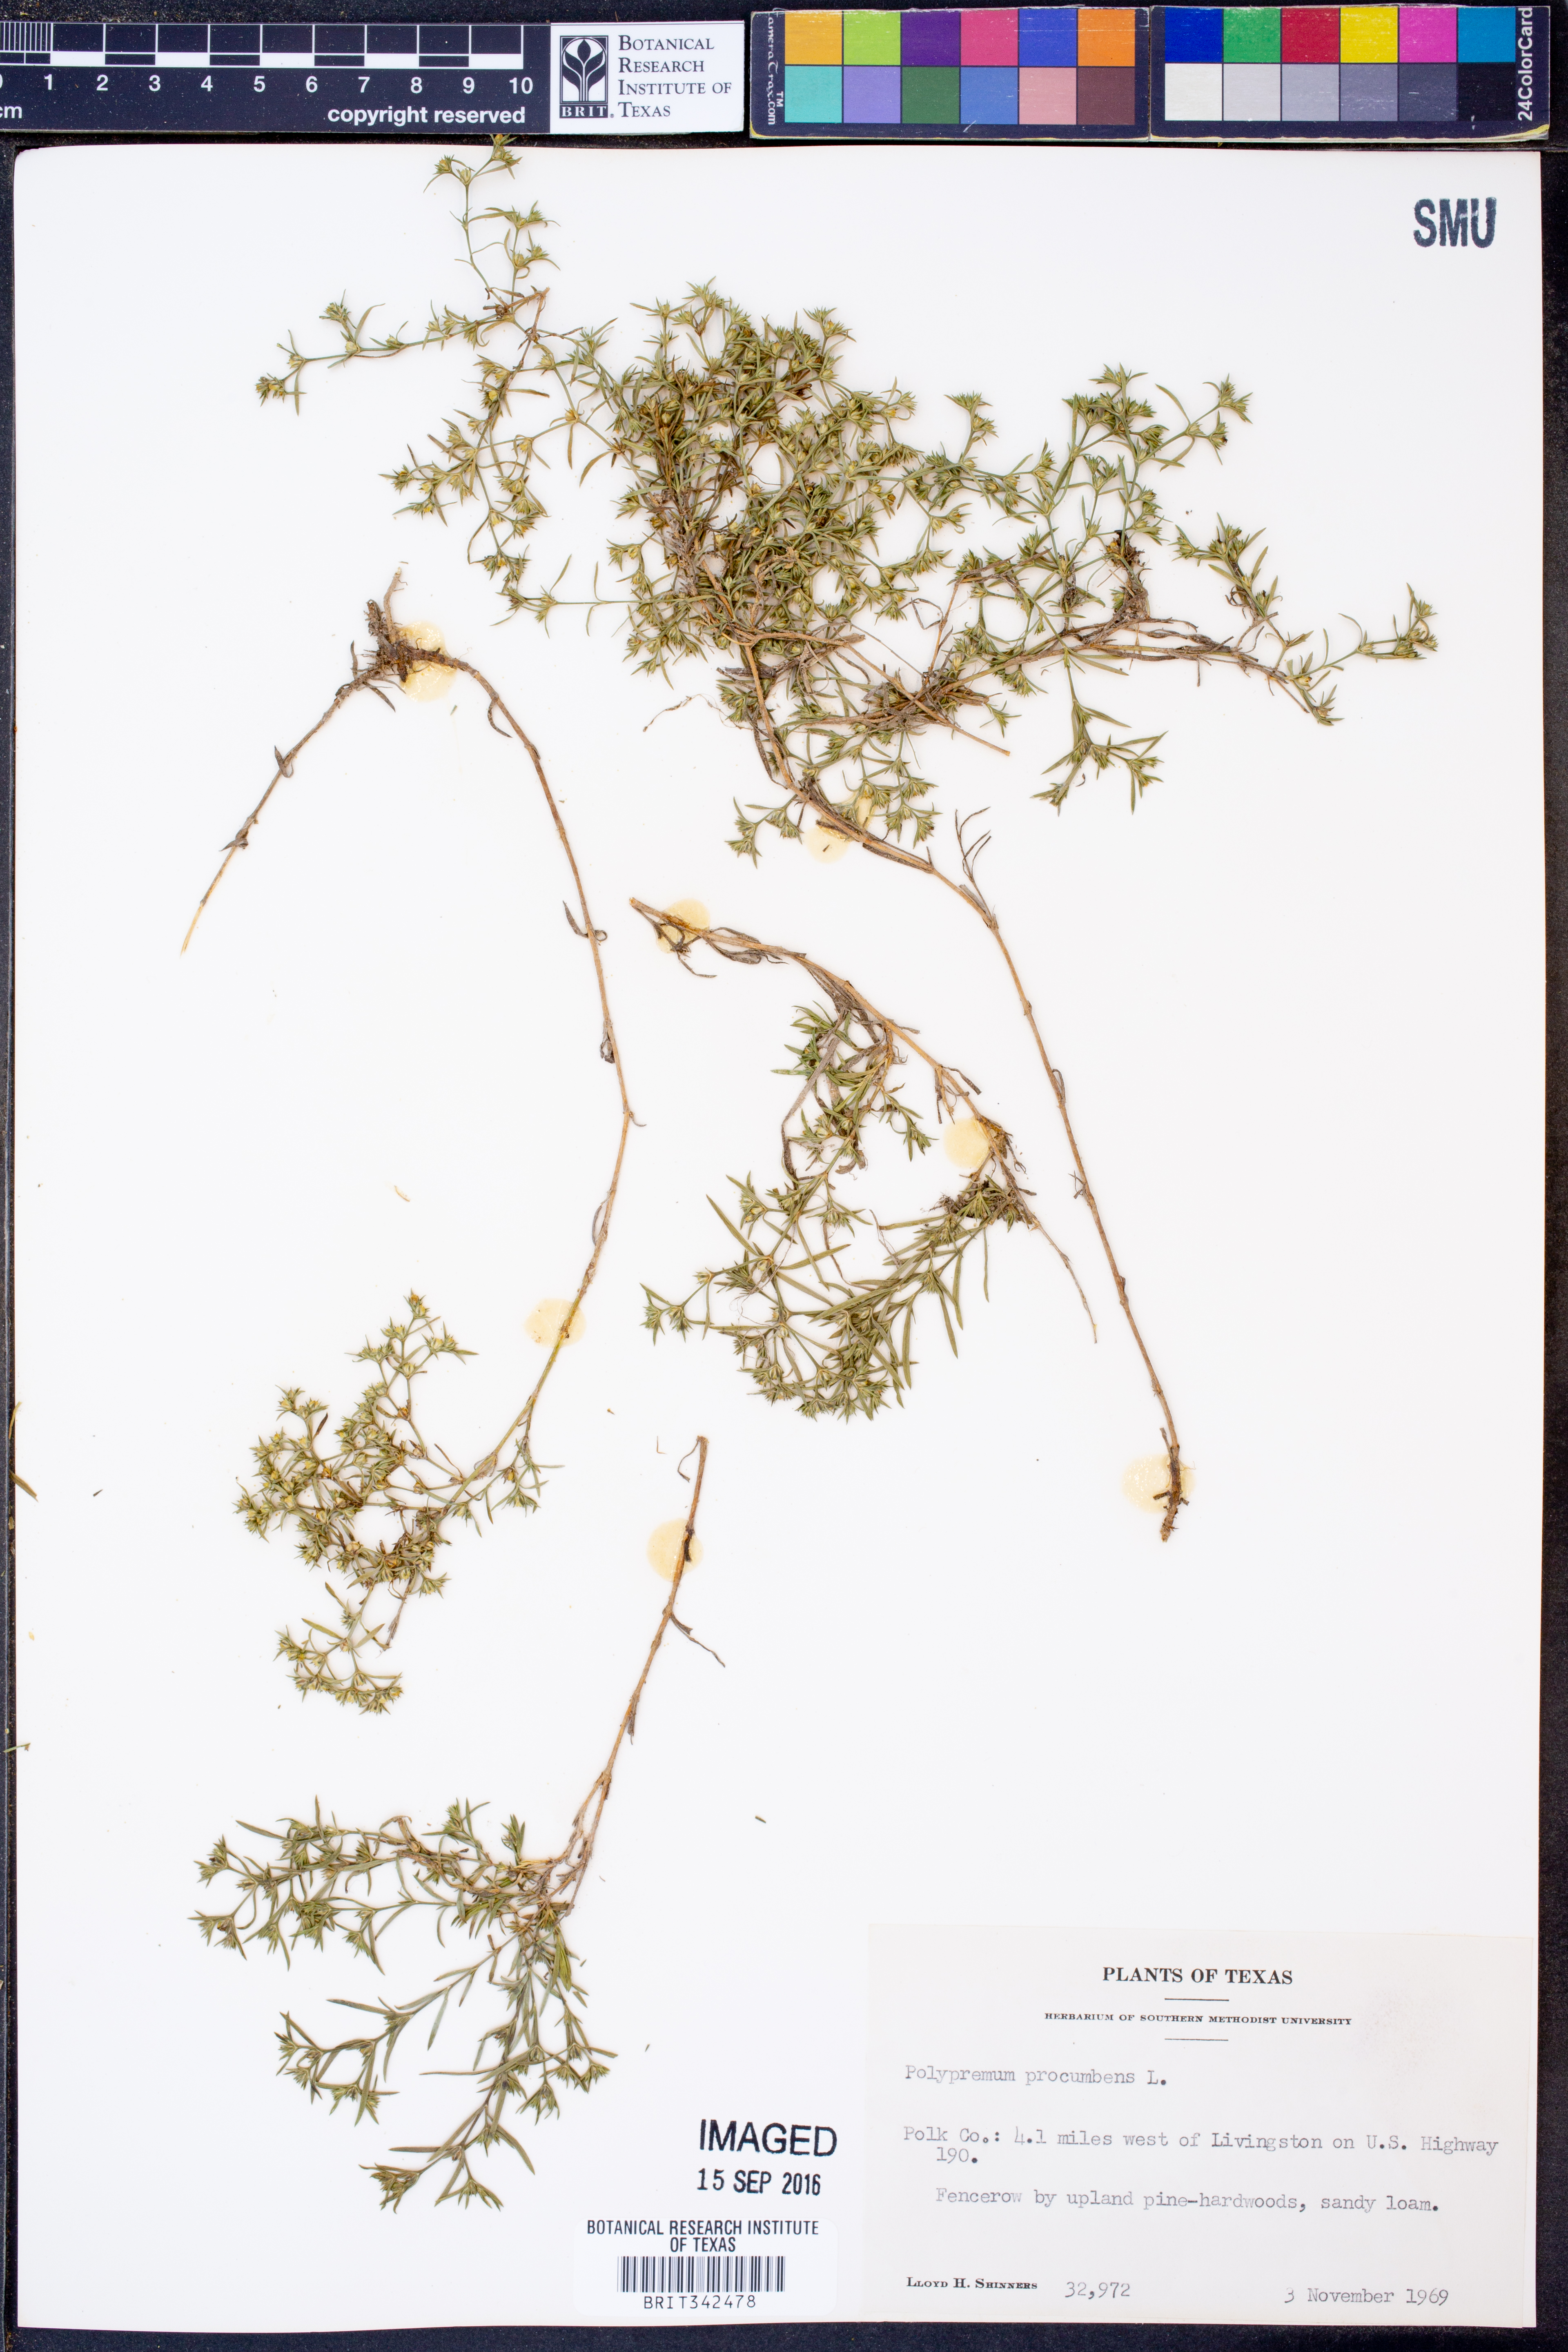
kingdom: Plantae
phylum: Tracheophyta
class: Magnoliopsida
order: Lamiales
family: Tetrachondraceae
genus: Polypremum
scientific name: Polypremum procumbens
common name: Juniper-leaf
